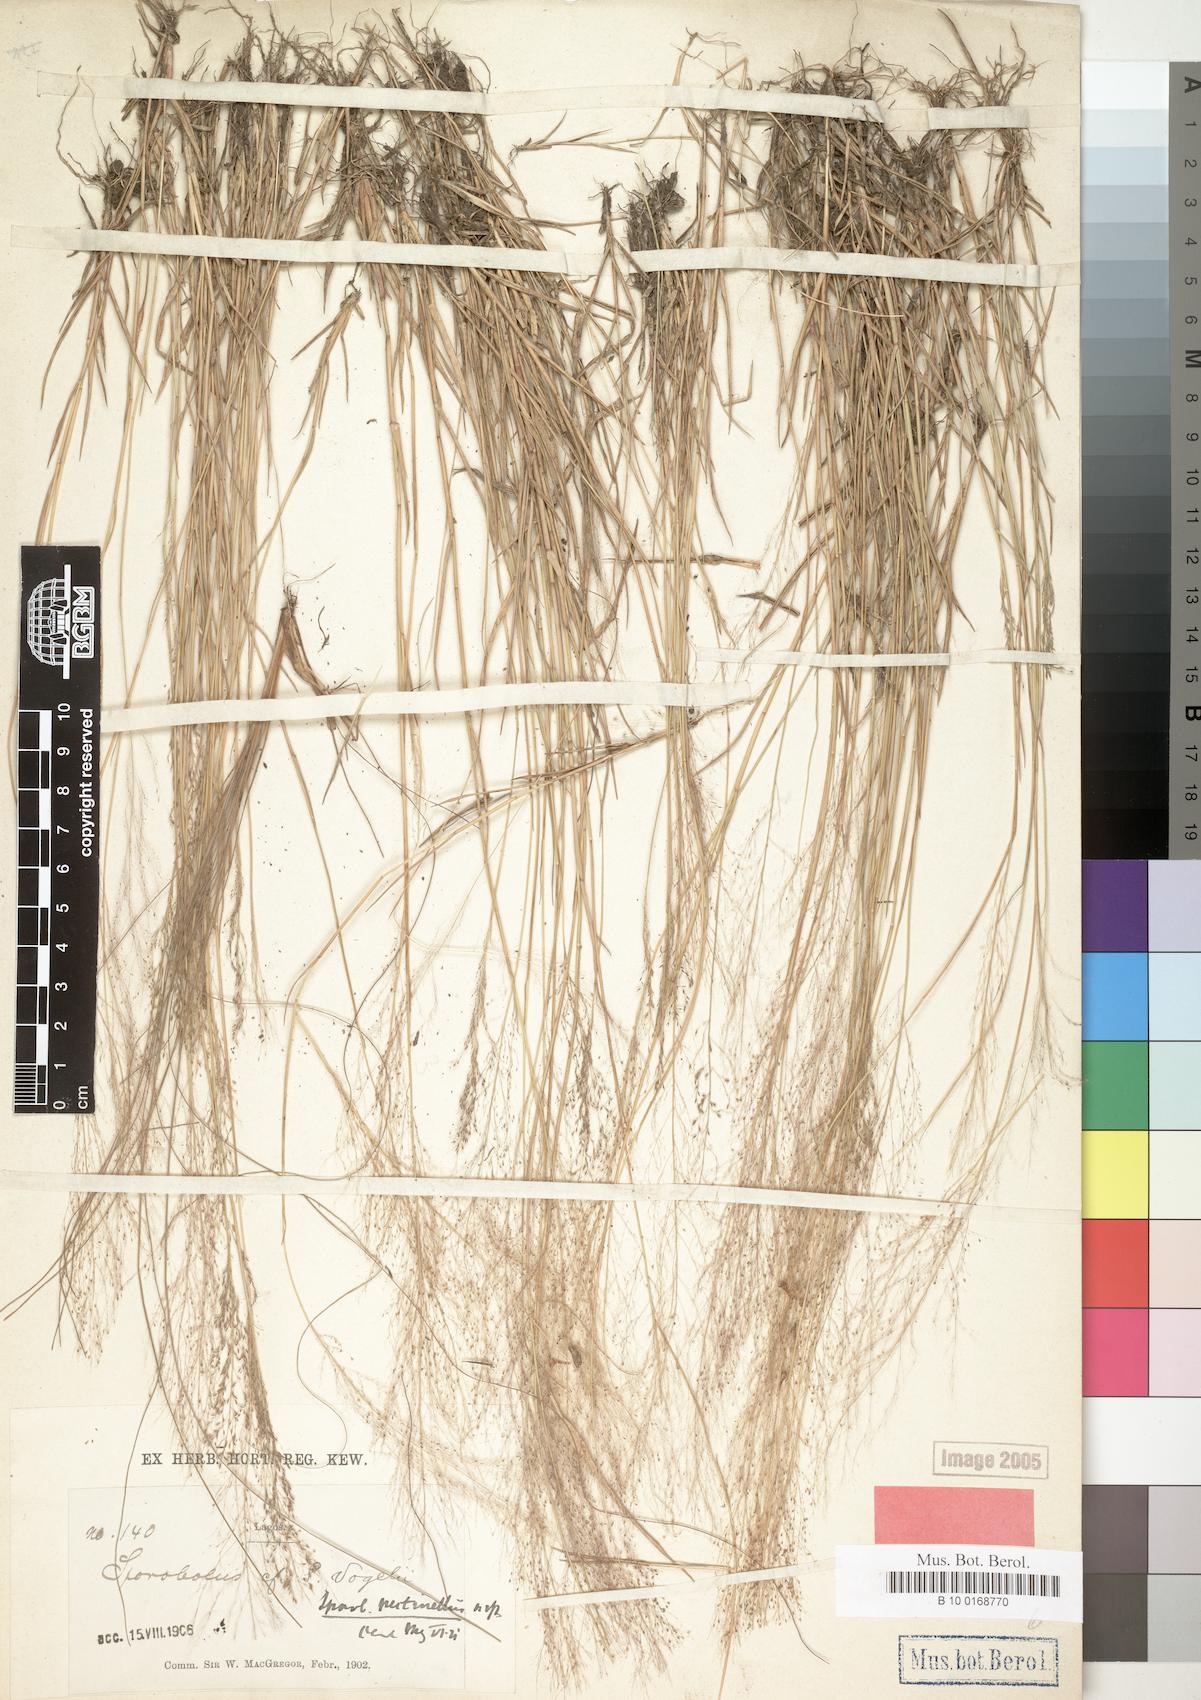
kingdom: Plantae
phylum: Tracheophyta
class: Liliopsida
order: Poales
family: Poaceae
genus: Sporobolus
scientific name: Sporobolus pectinellus
